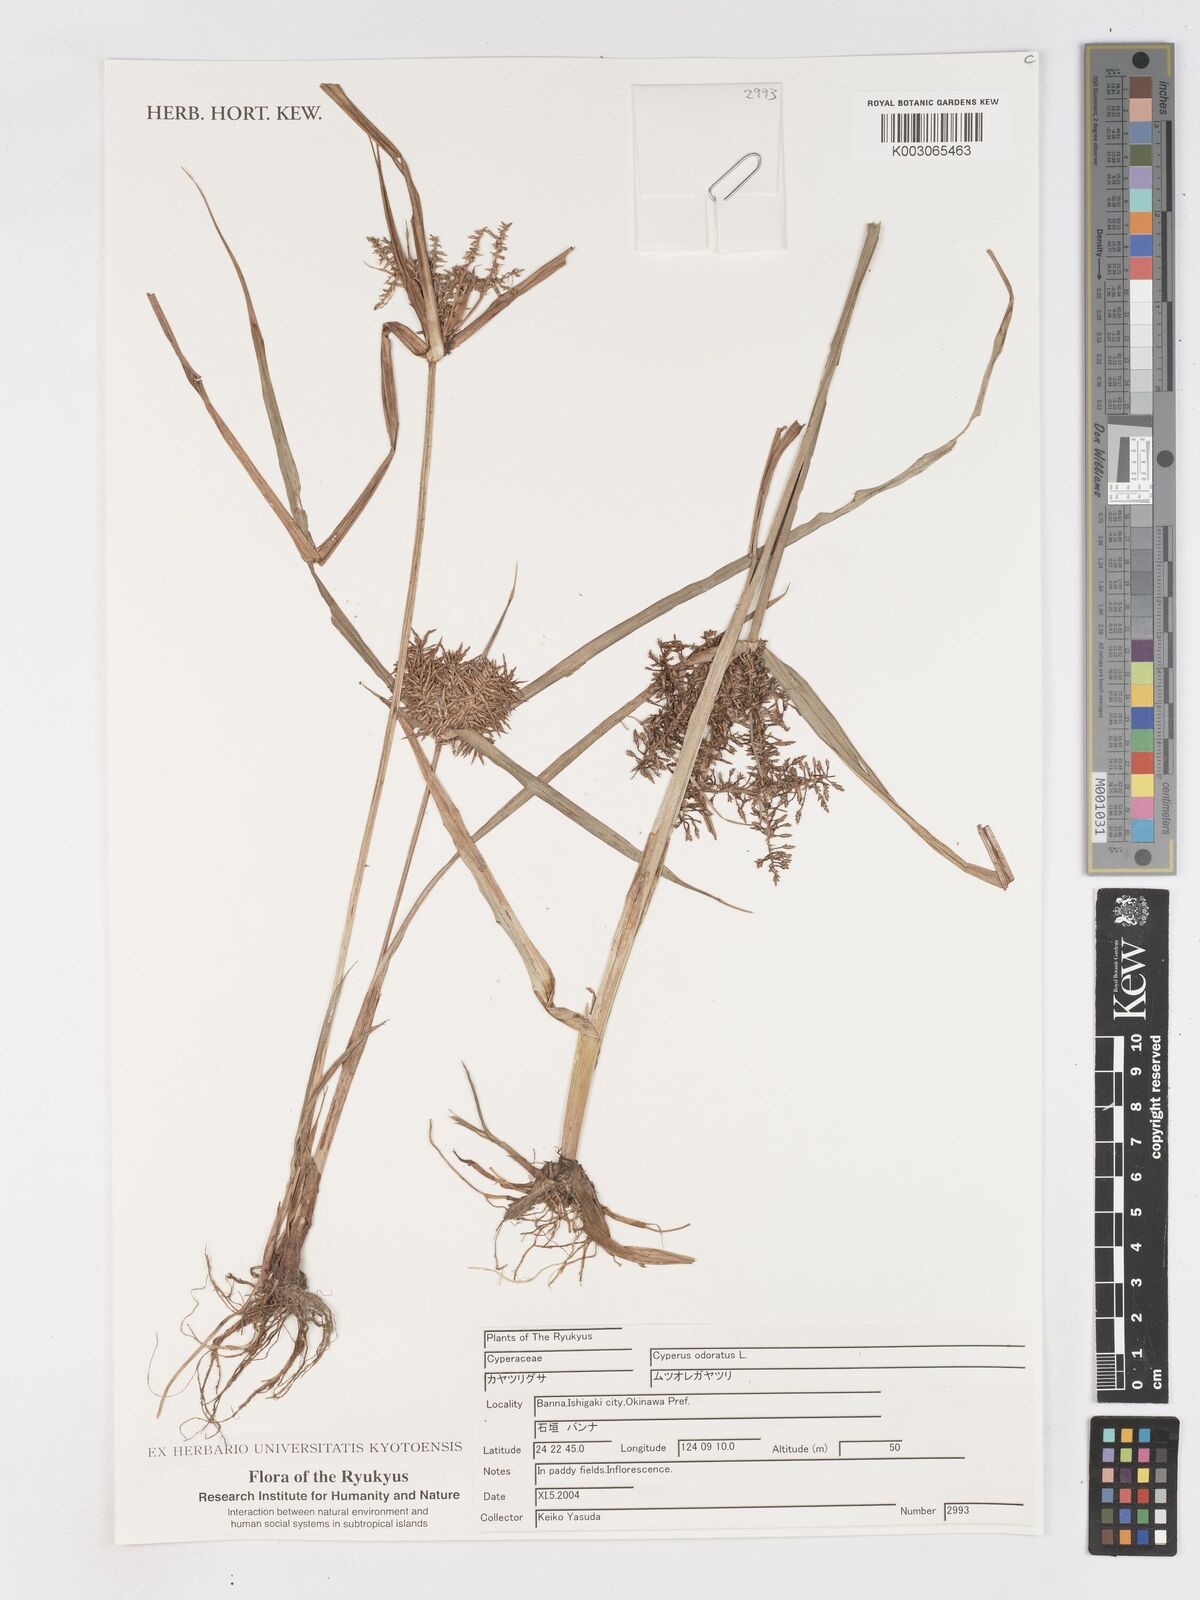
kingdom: Plantae
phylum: Tracheophyta
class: Liliopsida
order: Poales
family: Cyperaceae
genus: Cyperus
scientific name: Cyperus odoratus
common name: Fragrant flatsedge
